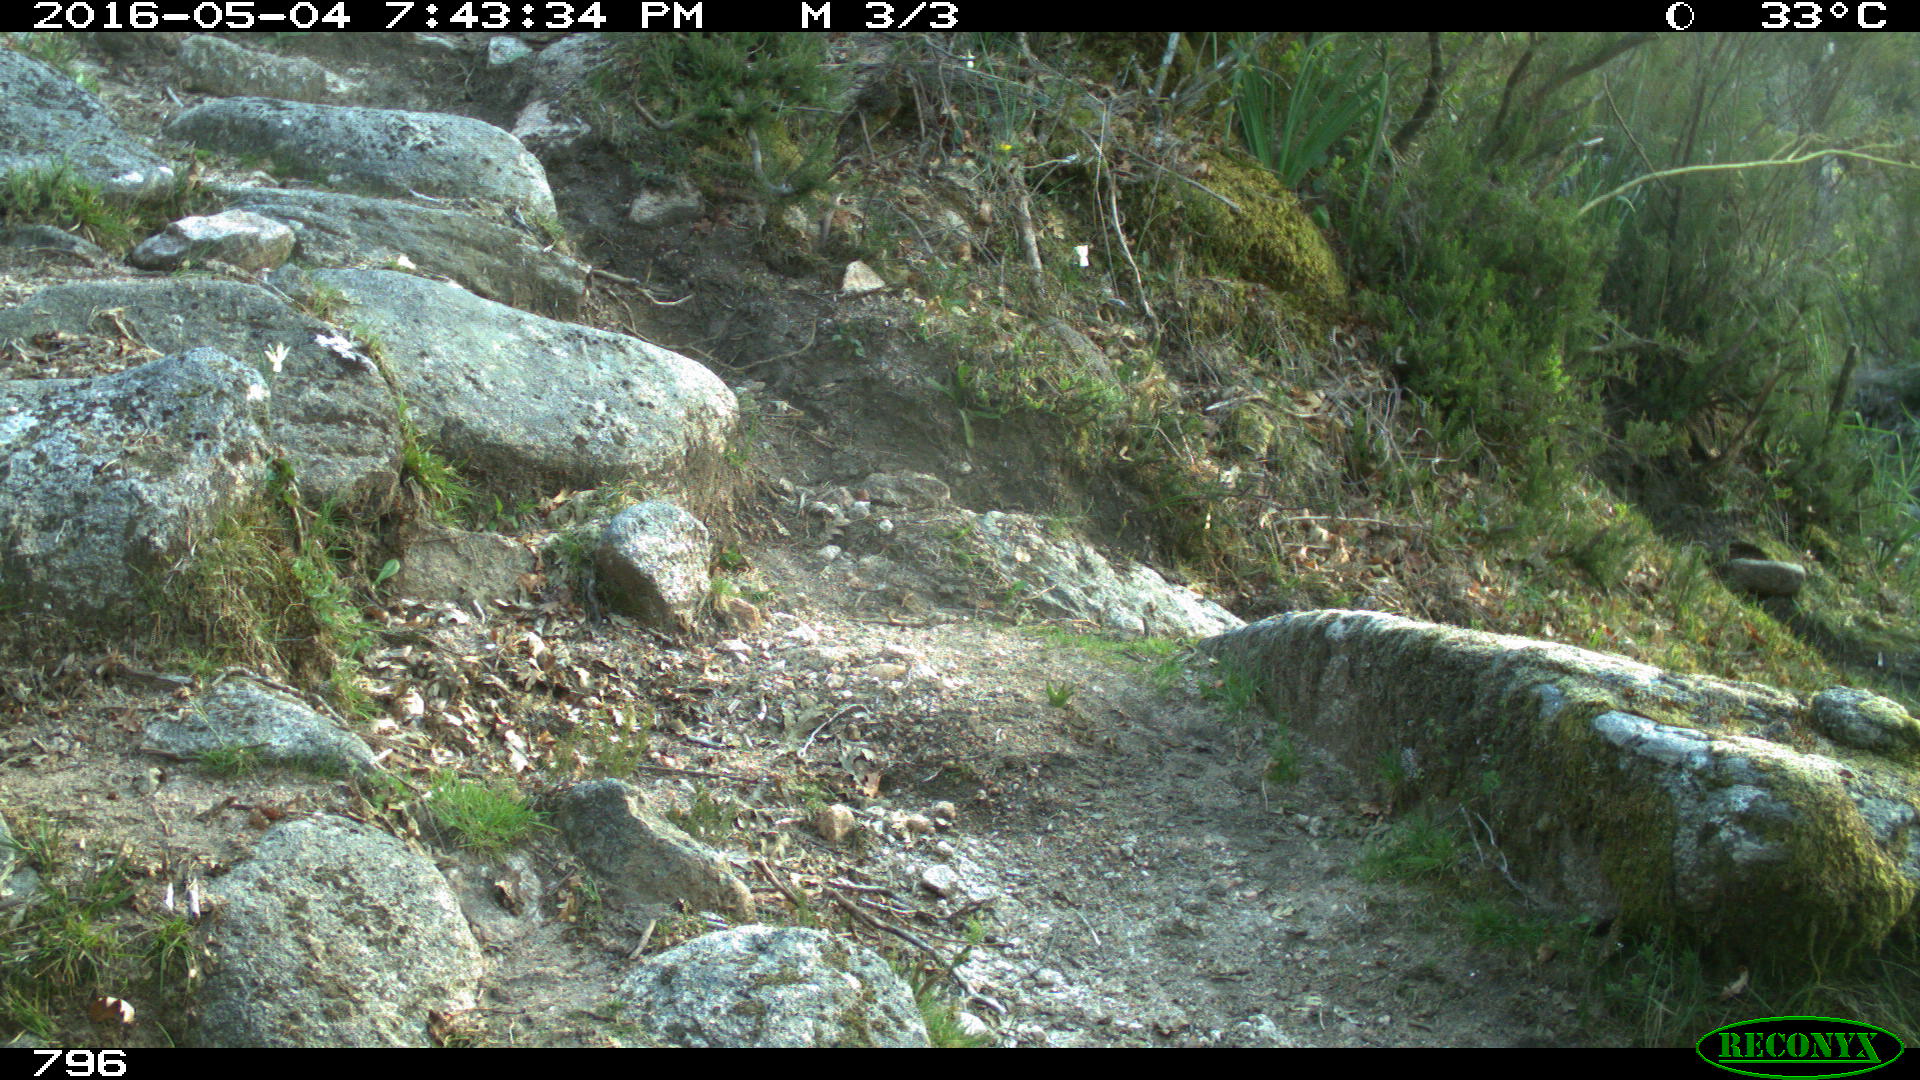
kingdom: Animalia
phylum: Chordata
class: Mammalia
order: Artiodactyla
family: Bovidae
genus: Bos
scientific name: Bos taurus
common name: Domesticated cattle
